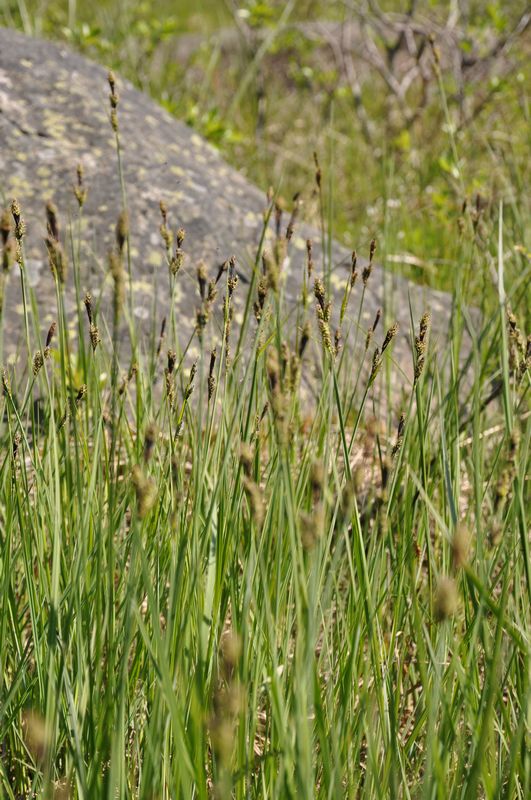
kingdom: Plantae
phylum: Tracheophyta
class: Liliopsida
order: Poales
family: Cyperaceae
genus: Carex
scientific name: Carex buxbaumii
